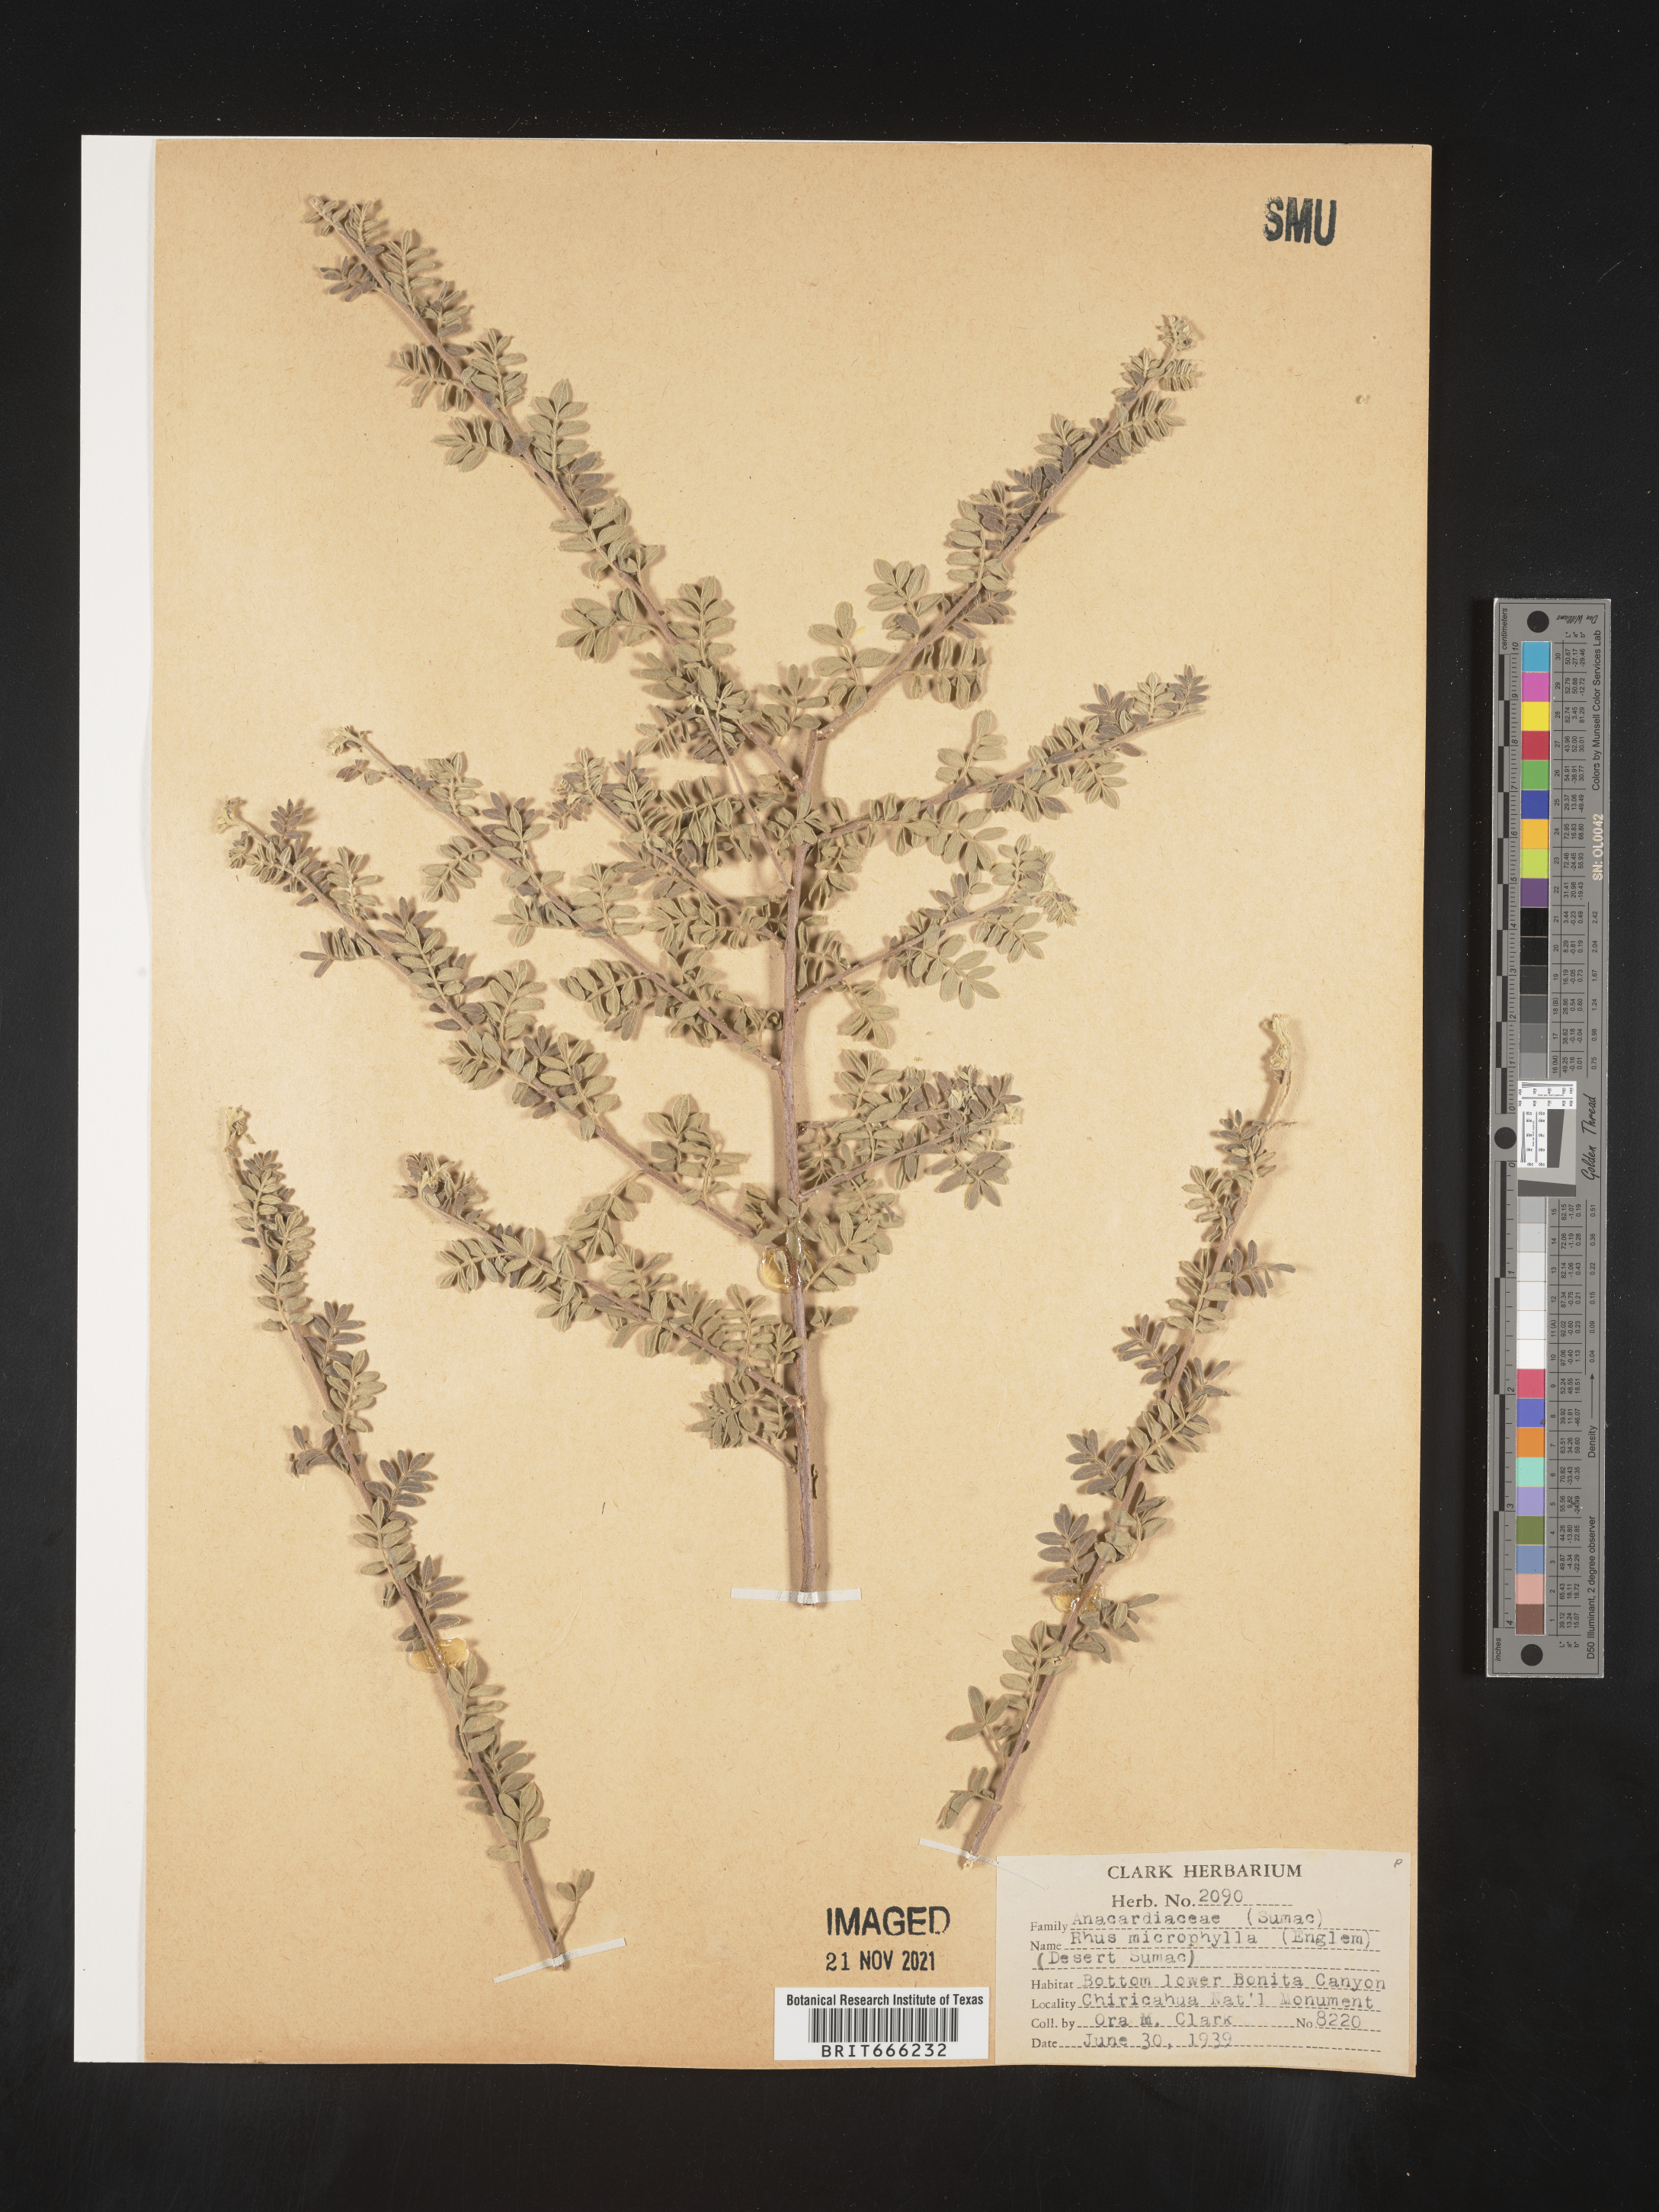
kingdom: Plantae
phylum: Tracheophyta
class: Magnoliopsida
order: Sapindales
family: Anacardiaceae
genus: Rhus
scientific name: Rhus
